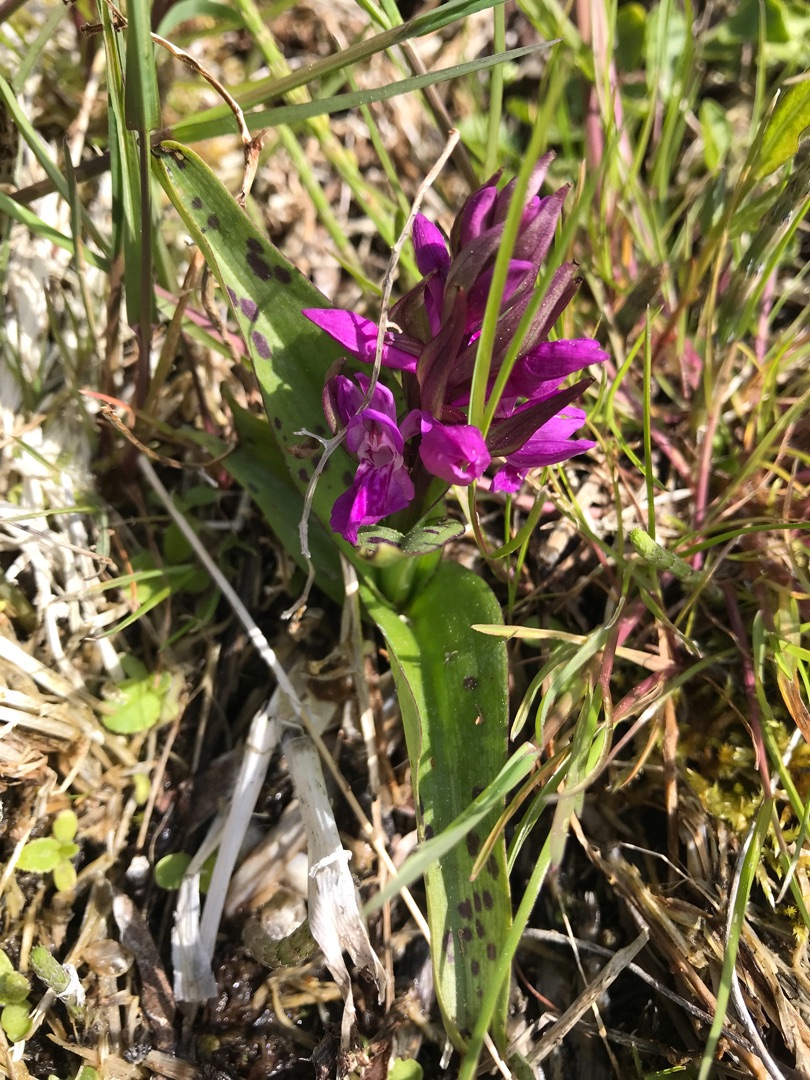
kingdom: Plantae
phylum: Tracheophyta
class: Liliopsida
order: Asparagales
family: Orchidaceae
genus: Dactylorhiza
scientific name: Dactylorhiza majalis
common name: Maj-gøgeurt
